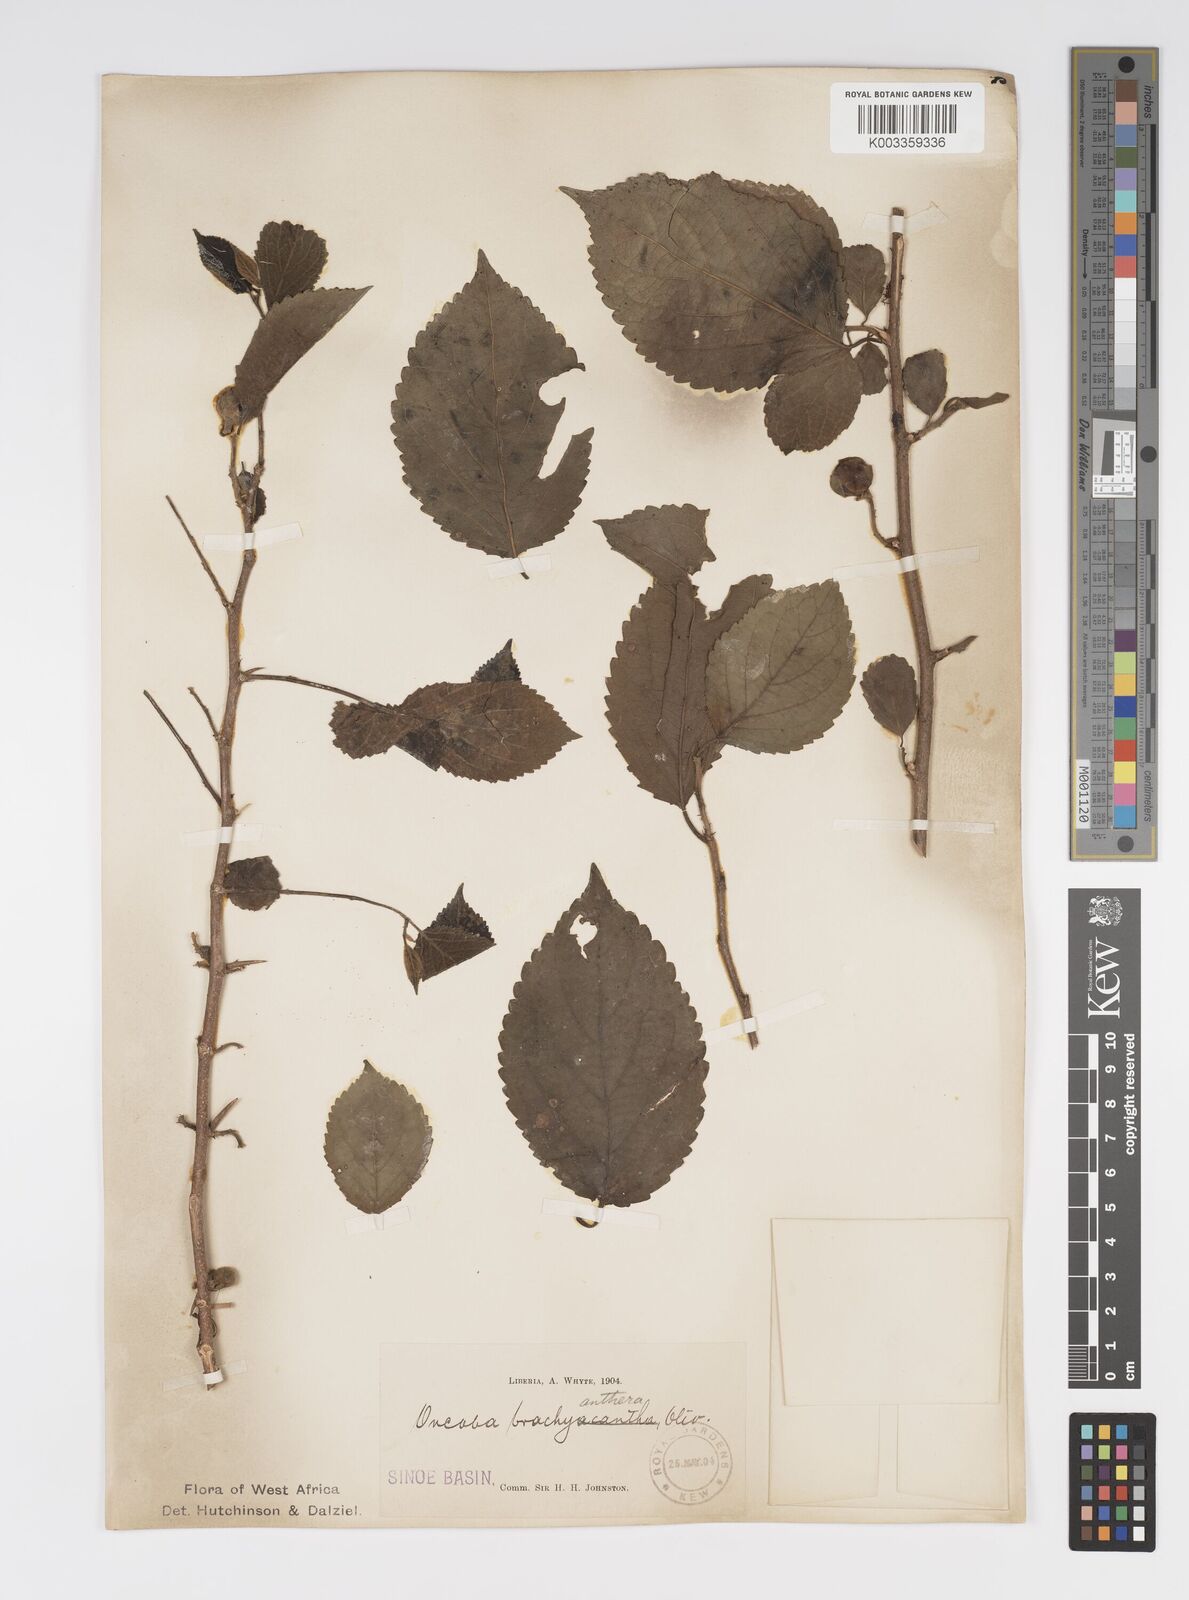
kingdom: Plantae
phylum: Tracheophyta
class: Magnoliopsida
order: Malpighiales
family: Salicaceae
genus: Oncoba
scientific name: Oncoba brachyanthera
